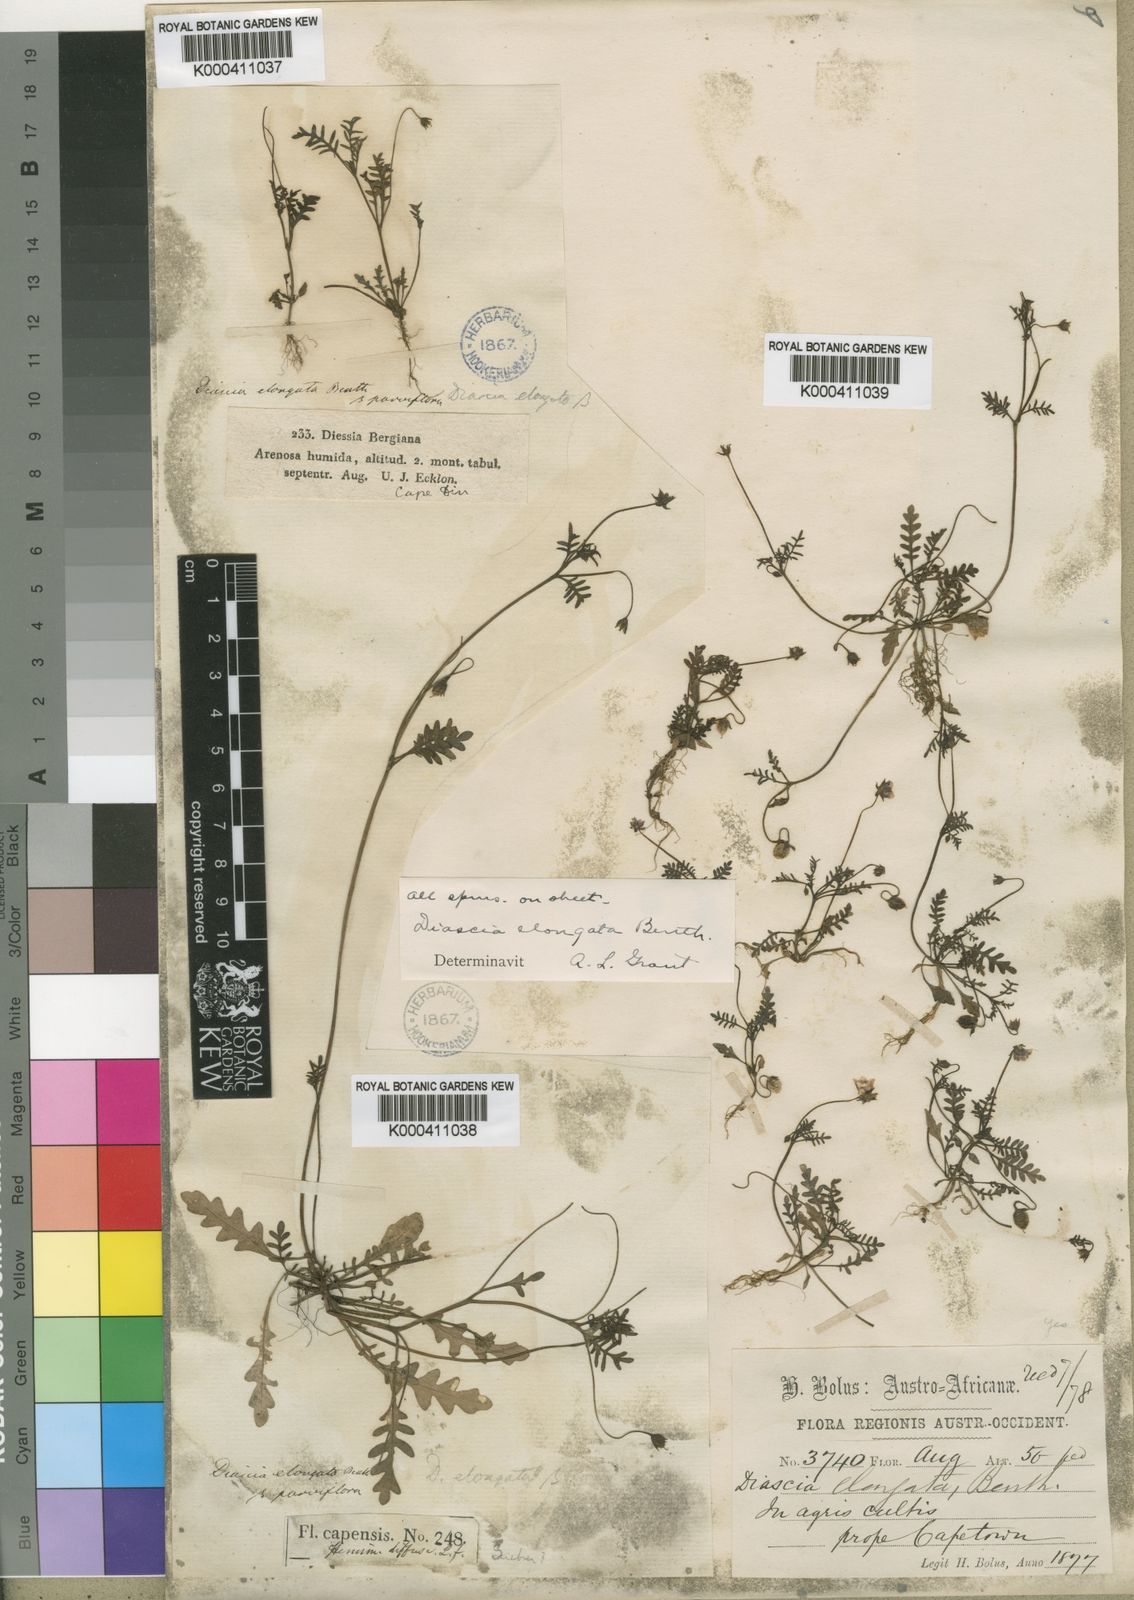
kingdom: Plantae
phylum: Tracheophyta
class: Magnoliopsida
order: Lamiales
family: Scrophulariaceae
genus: Diascia
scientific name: Diascia elongata
